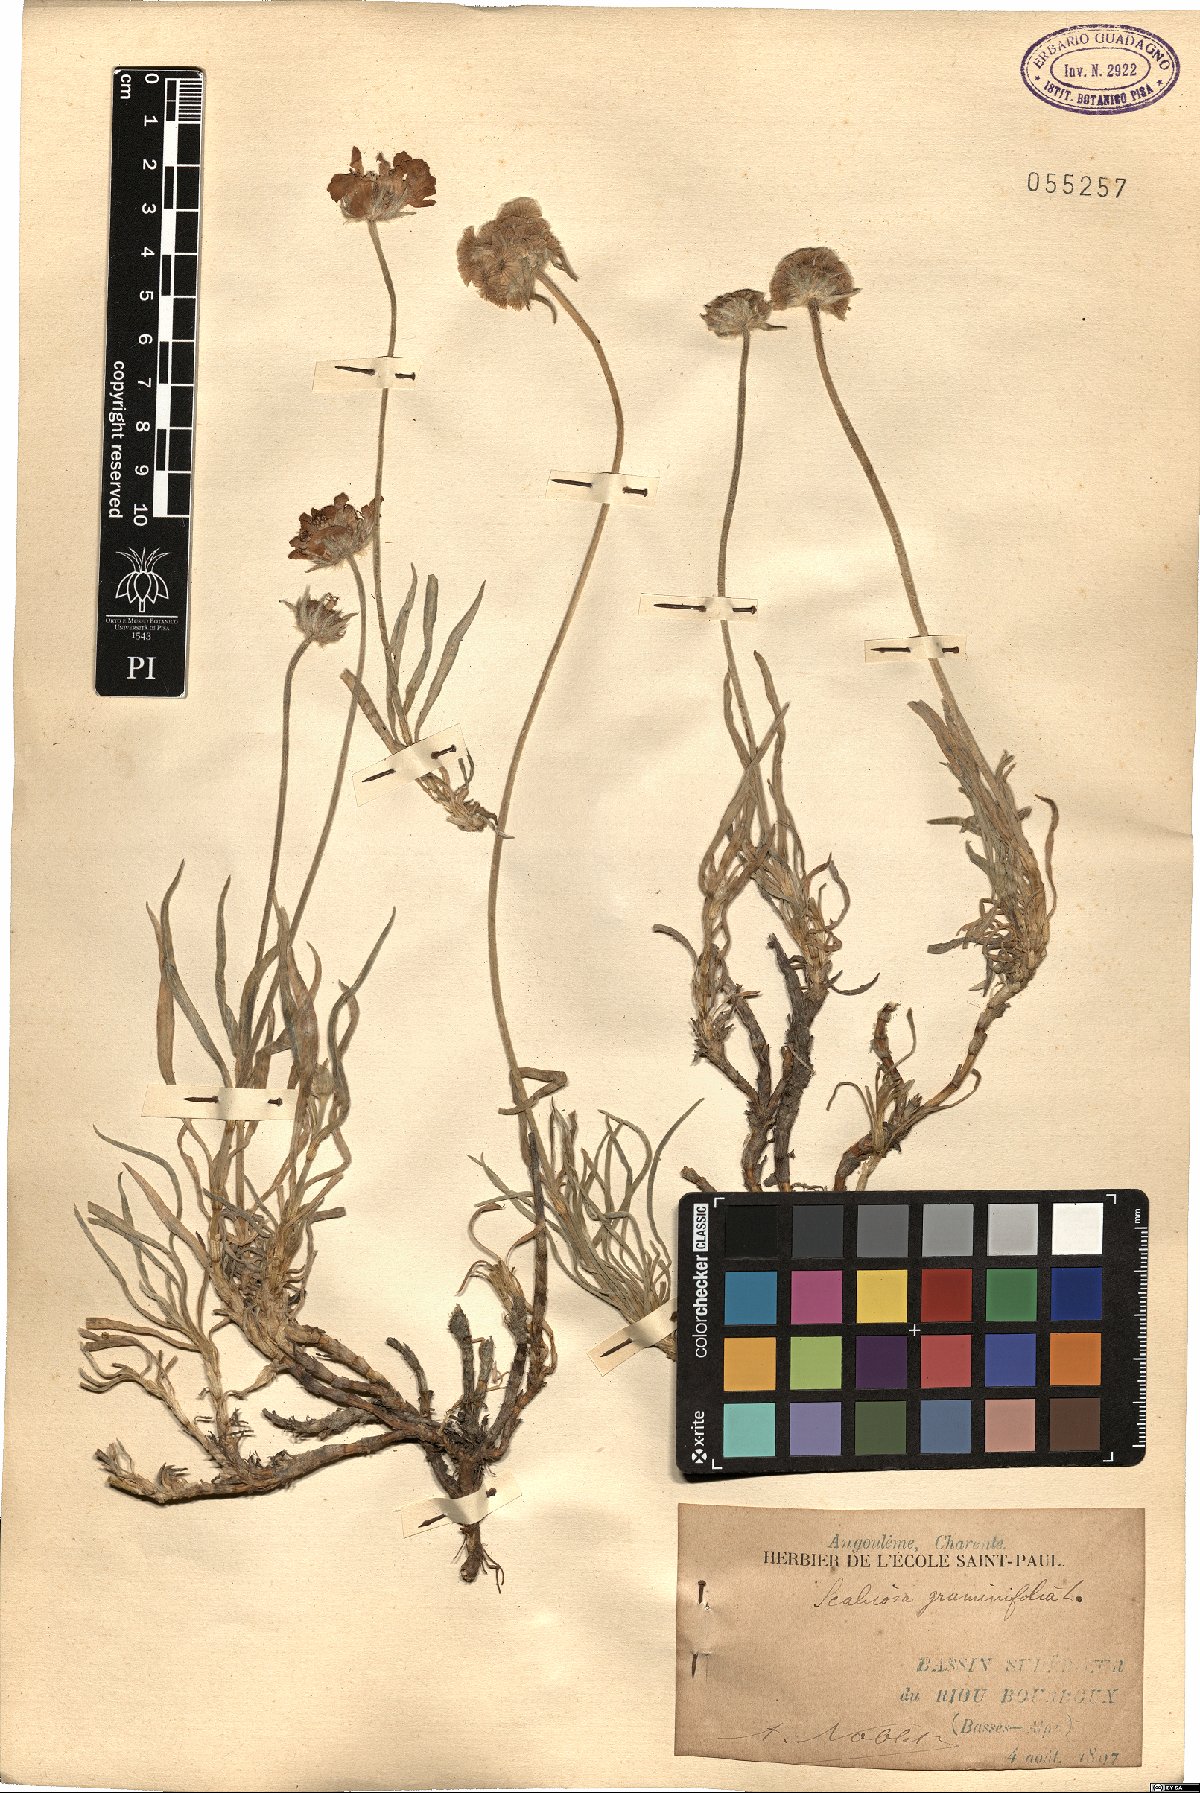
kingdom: Plantae
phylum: Tracheophyta
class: Magnoliopsida
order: Dipsacales
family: Caprifoliaceae
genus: Lomelosia
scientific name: Lomelosia graminifolia
